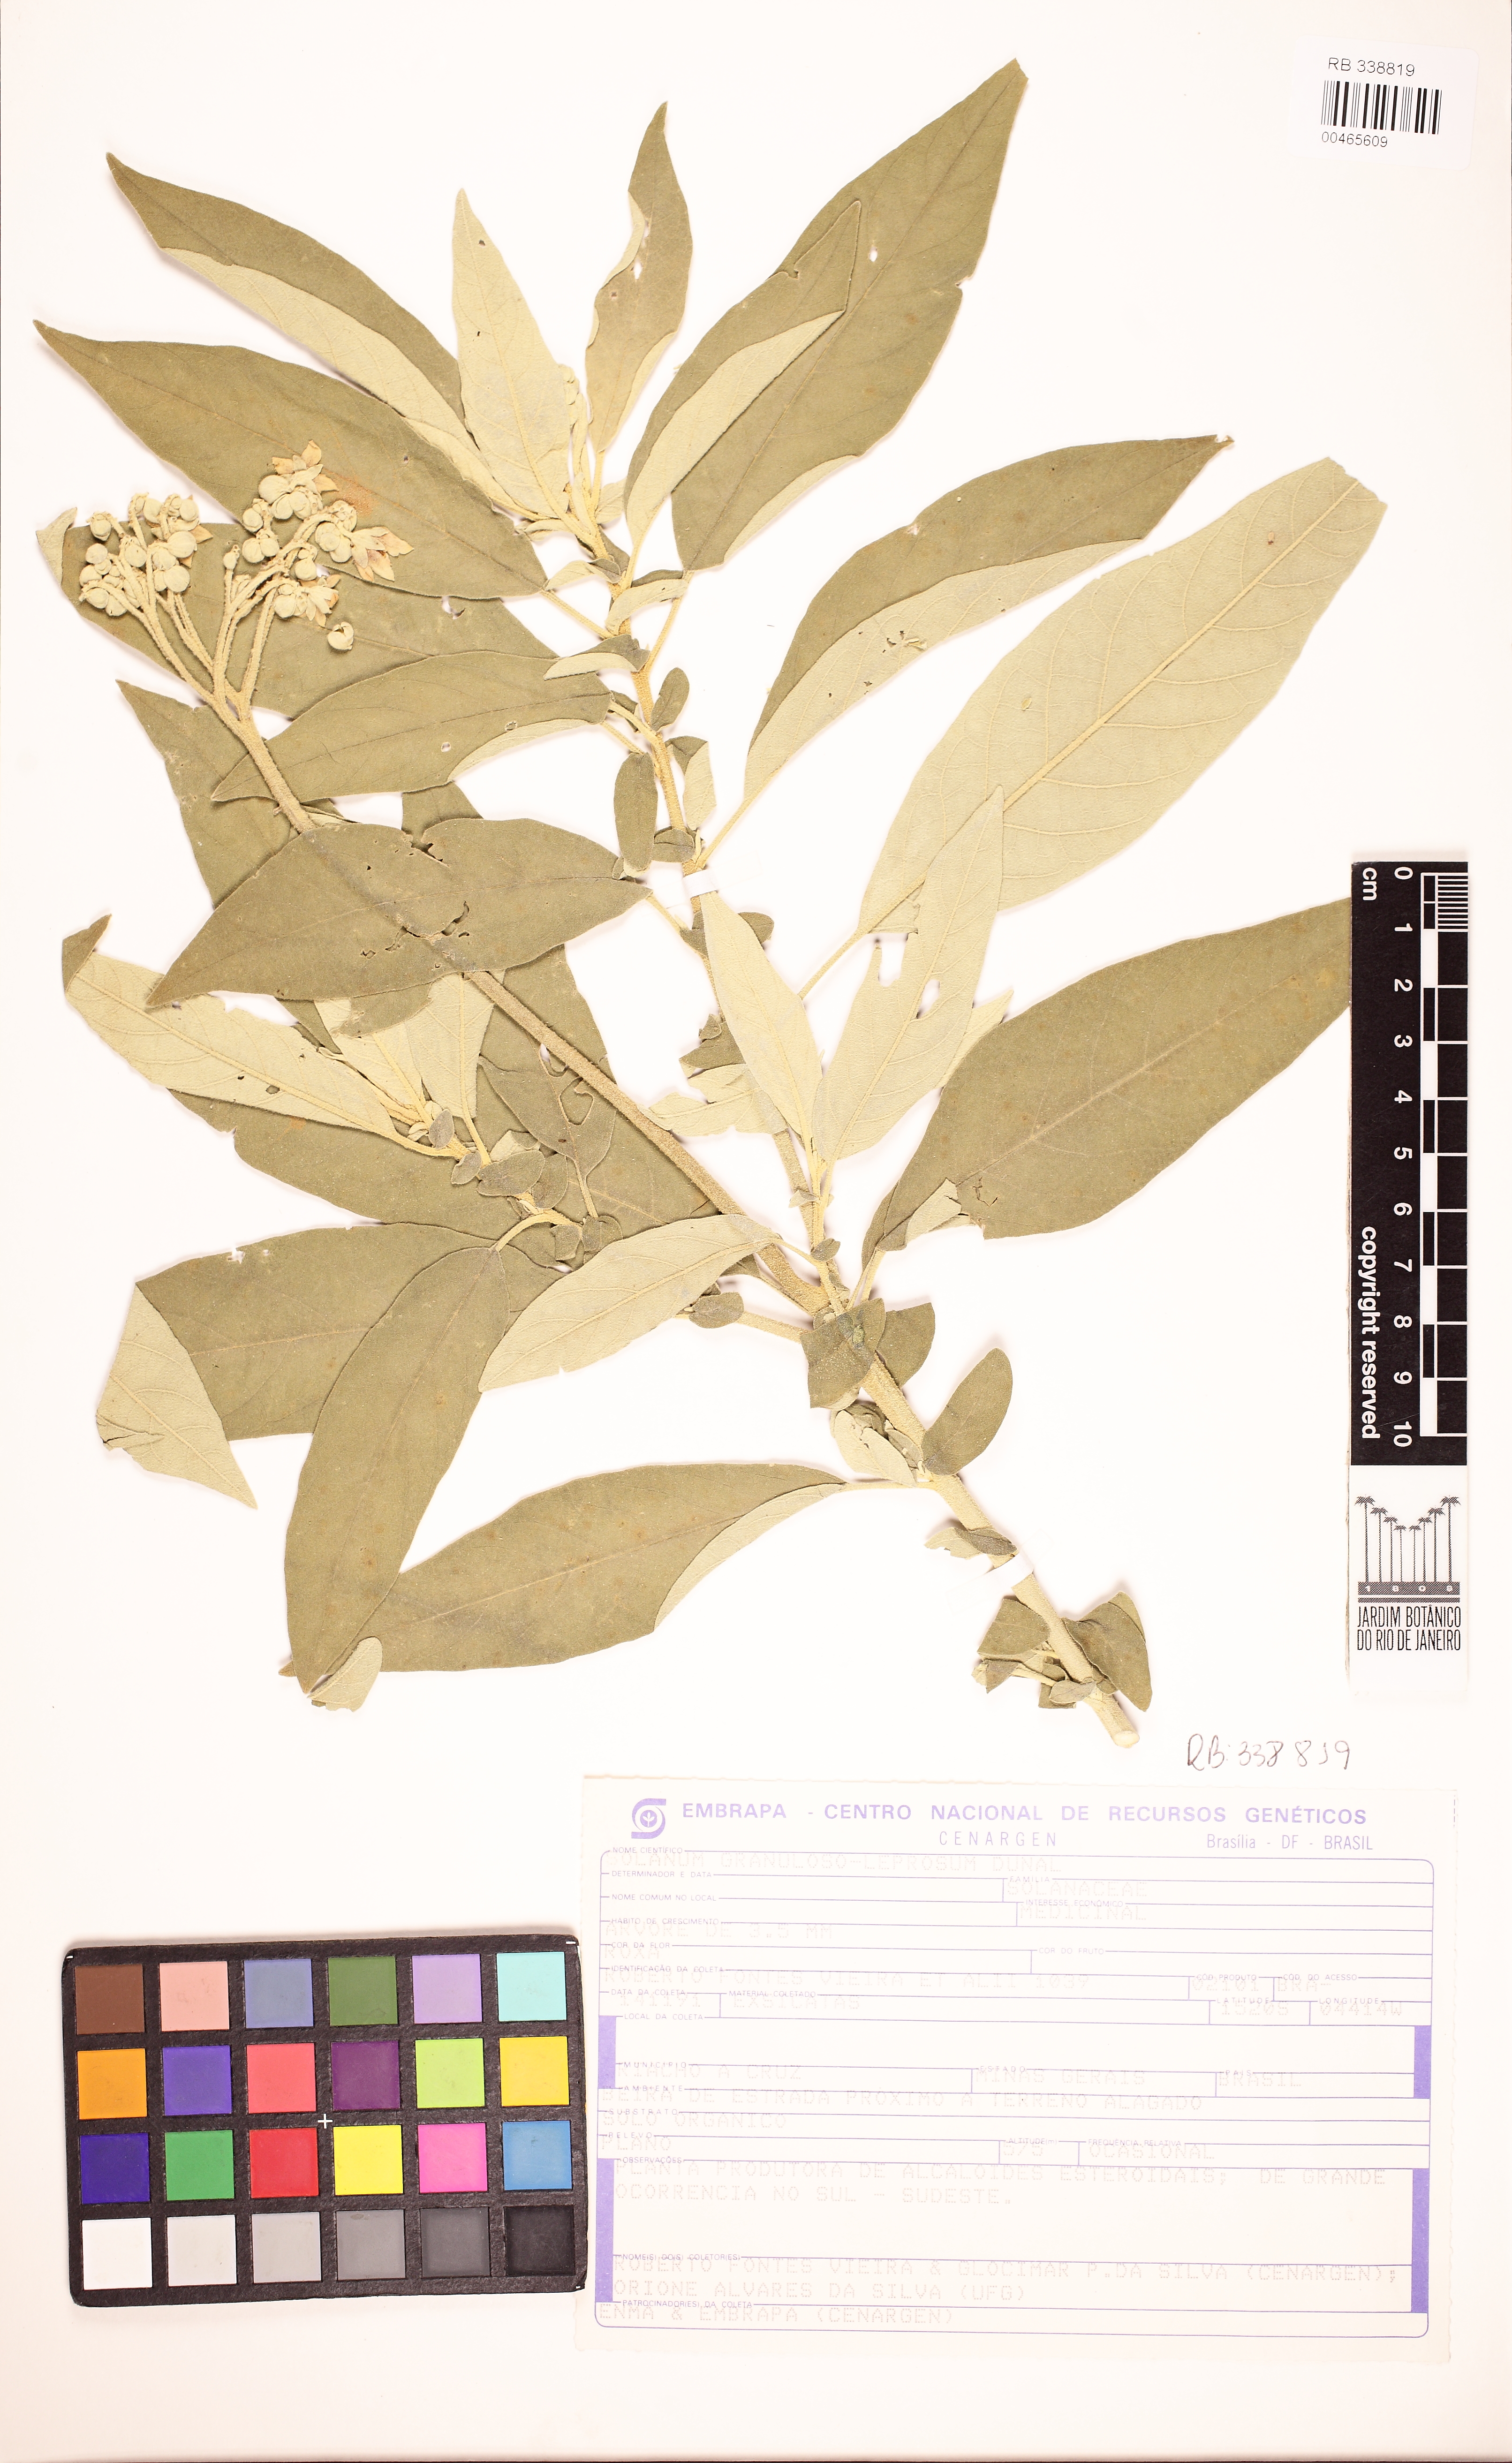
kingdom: Plantae
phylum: Tracheophyta
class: Magnoliopsida
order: Solanales
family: Solanaceae
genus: Solanum
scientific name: Solanum granulosoleprosum
